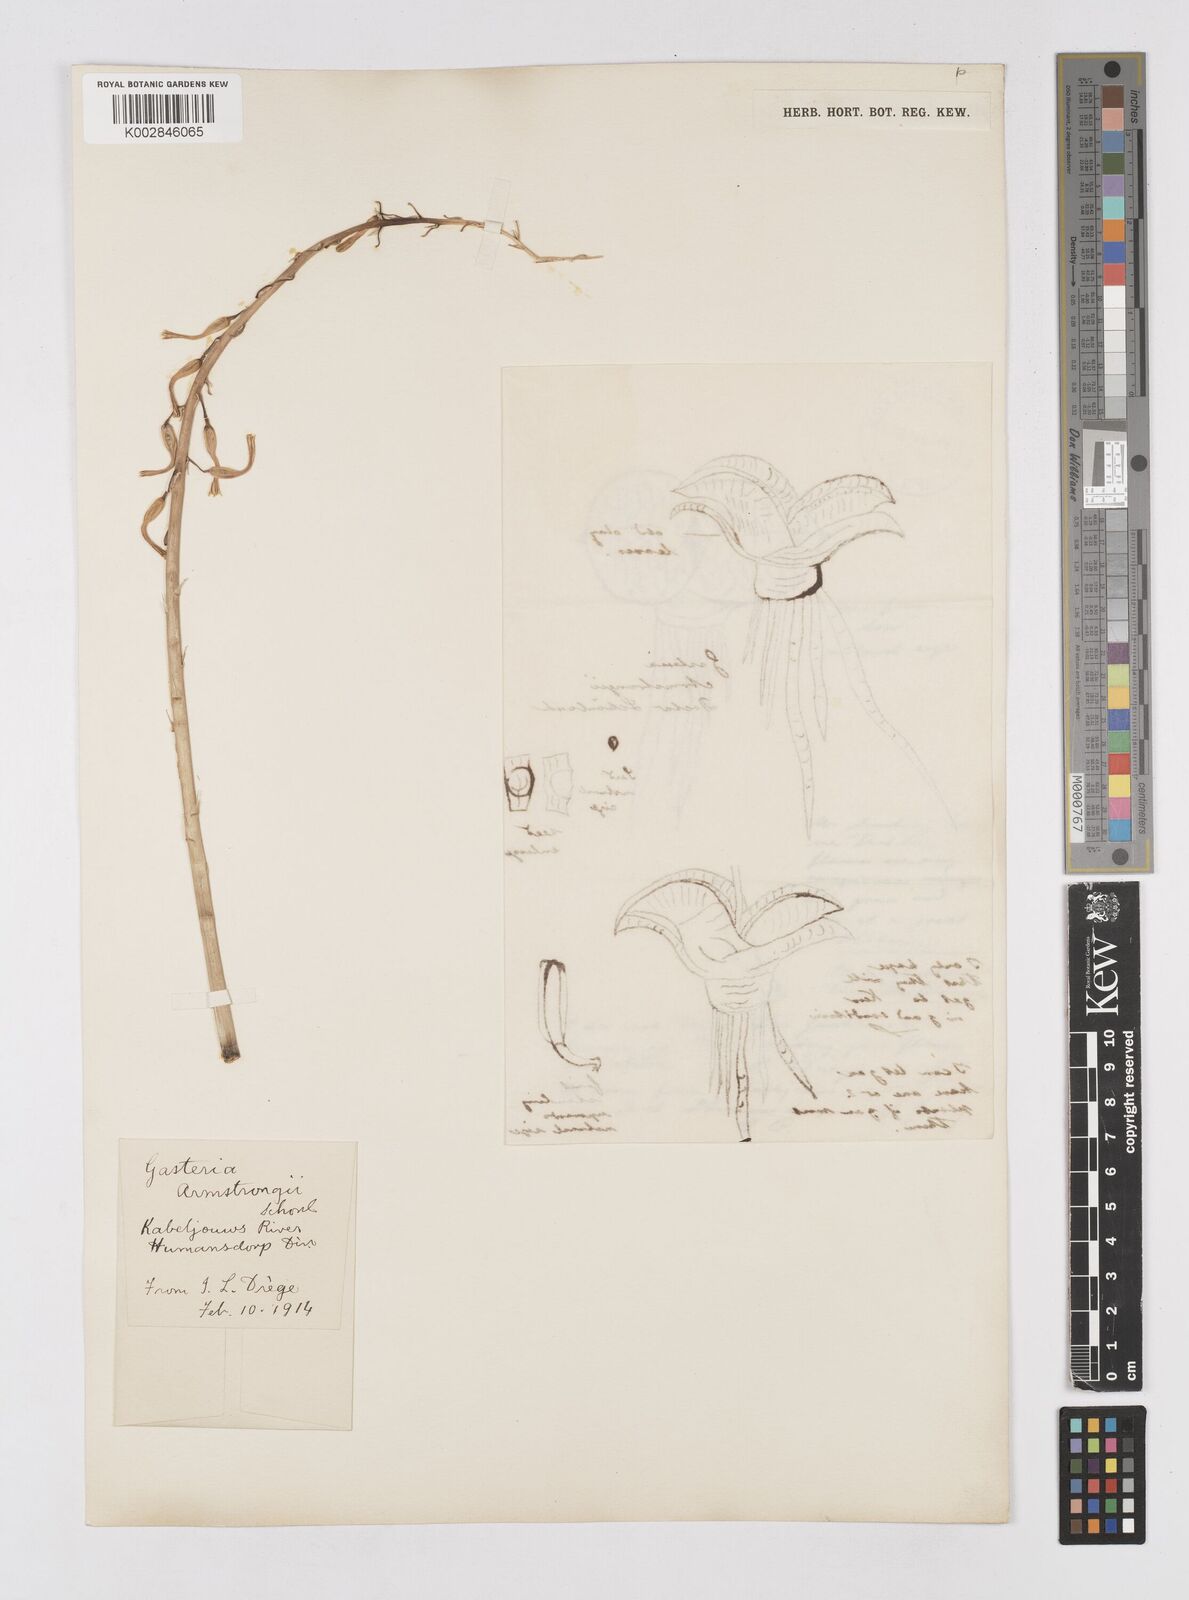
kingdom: Plantae
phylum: Tracheophyta
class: Liliopsida
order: Asparagales
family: Asphodelaceae
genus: Gasteria
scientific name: Gasteria nitida
